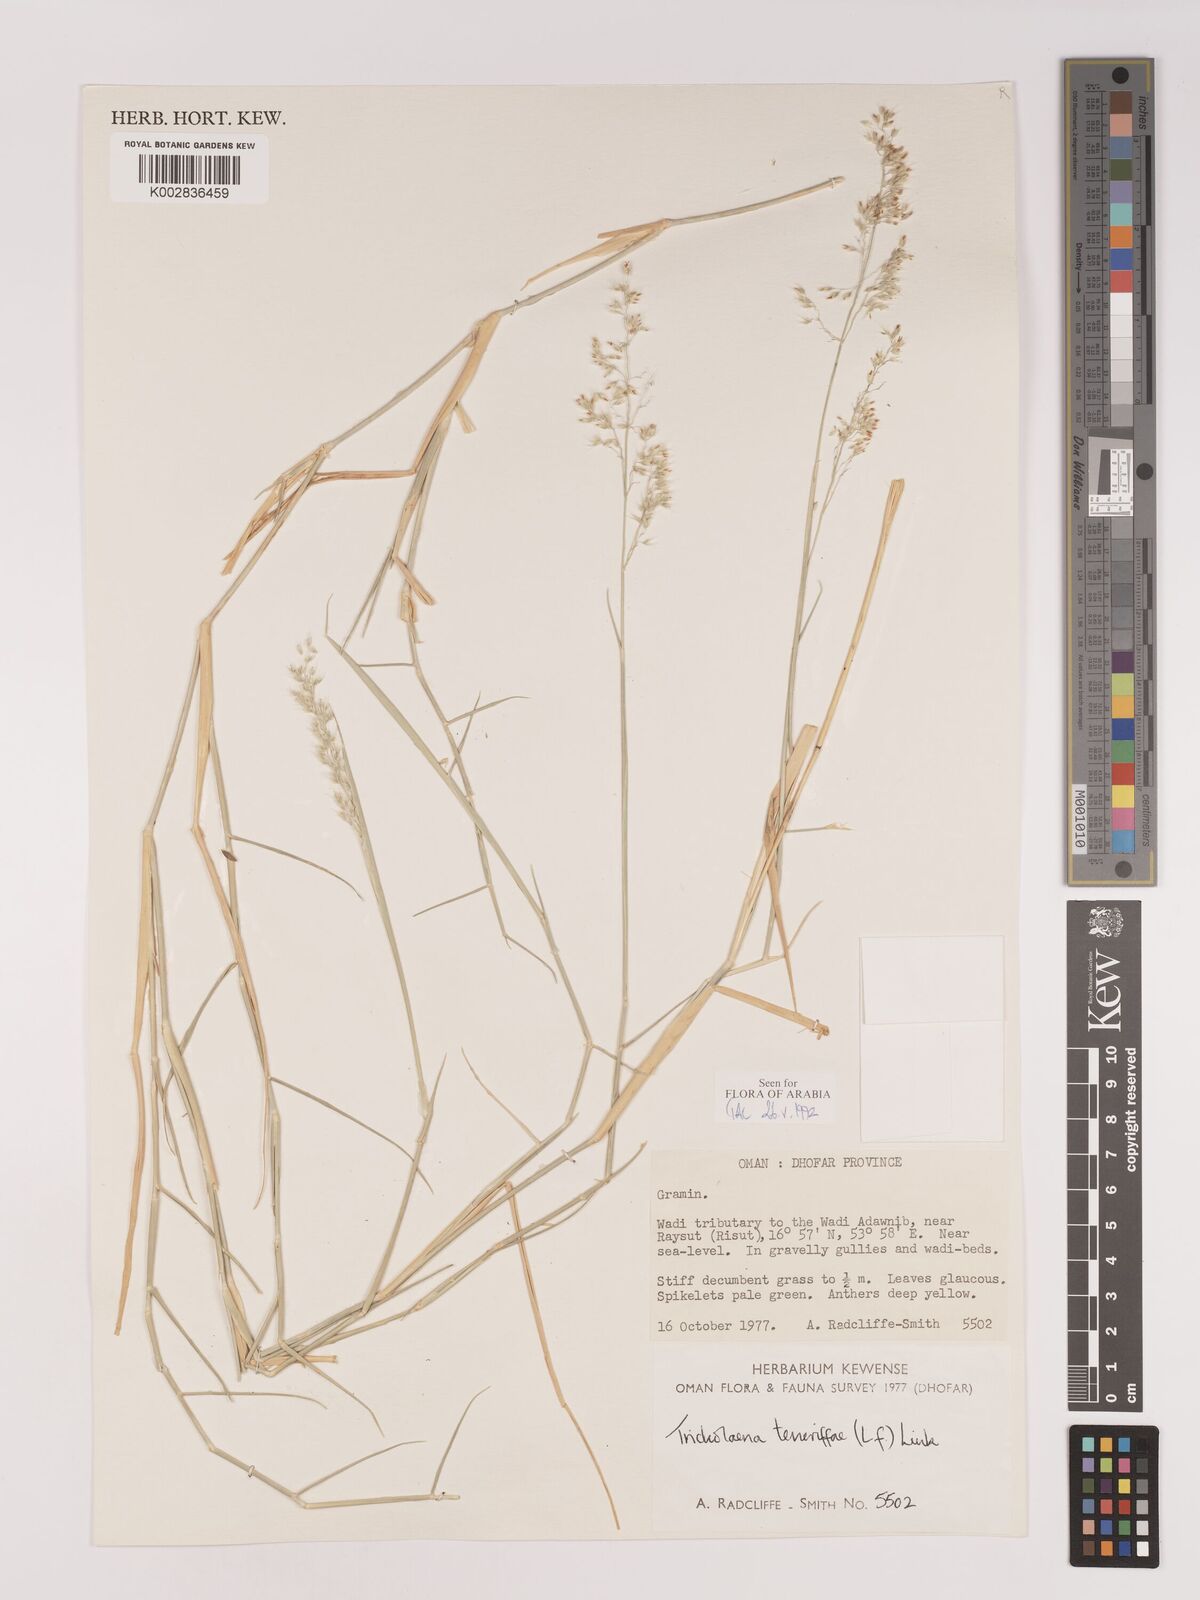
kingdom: Plantae
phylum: Tracheophyta
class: Liliopsida
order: Poales
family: Poaceae
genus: Tricholaena
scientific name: Tricholaena teneriffae
